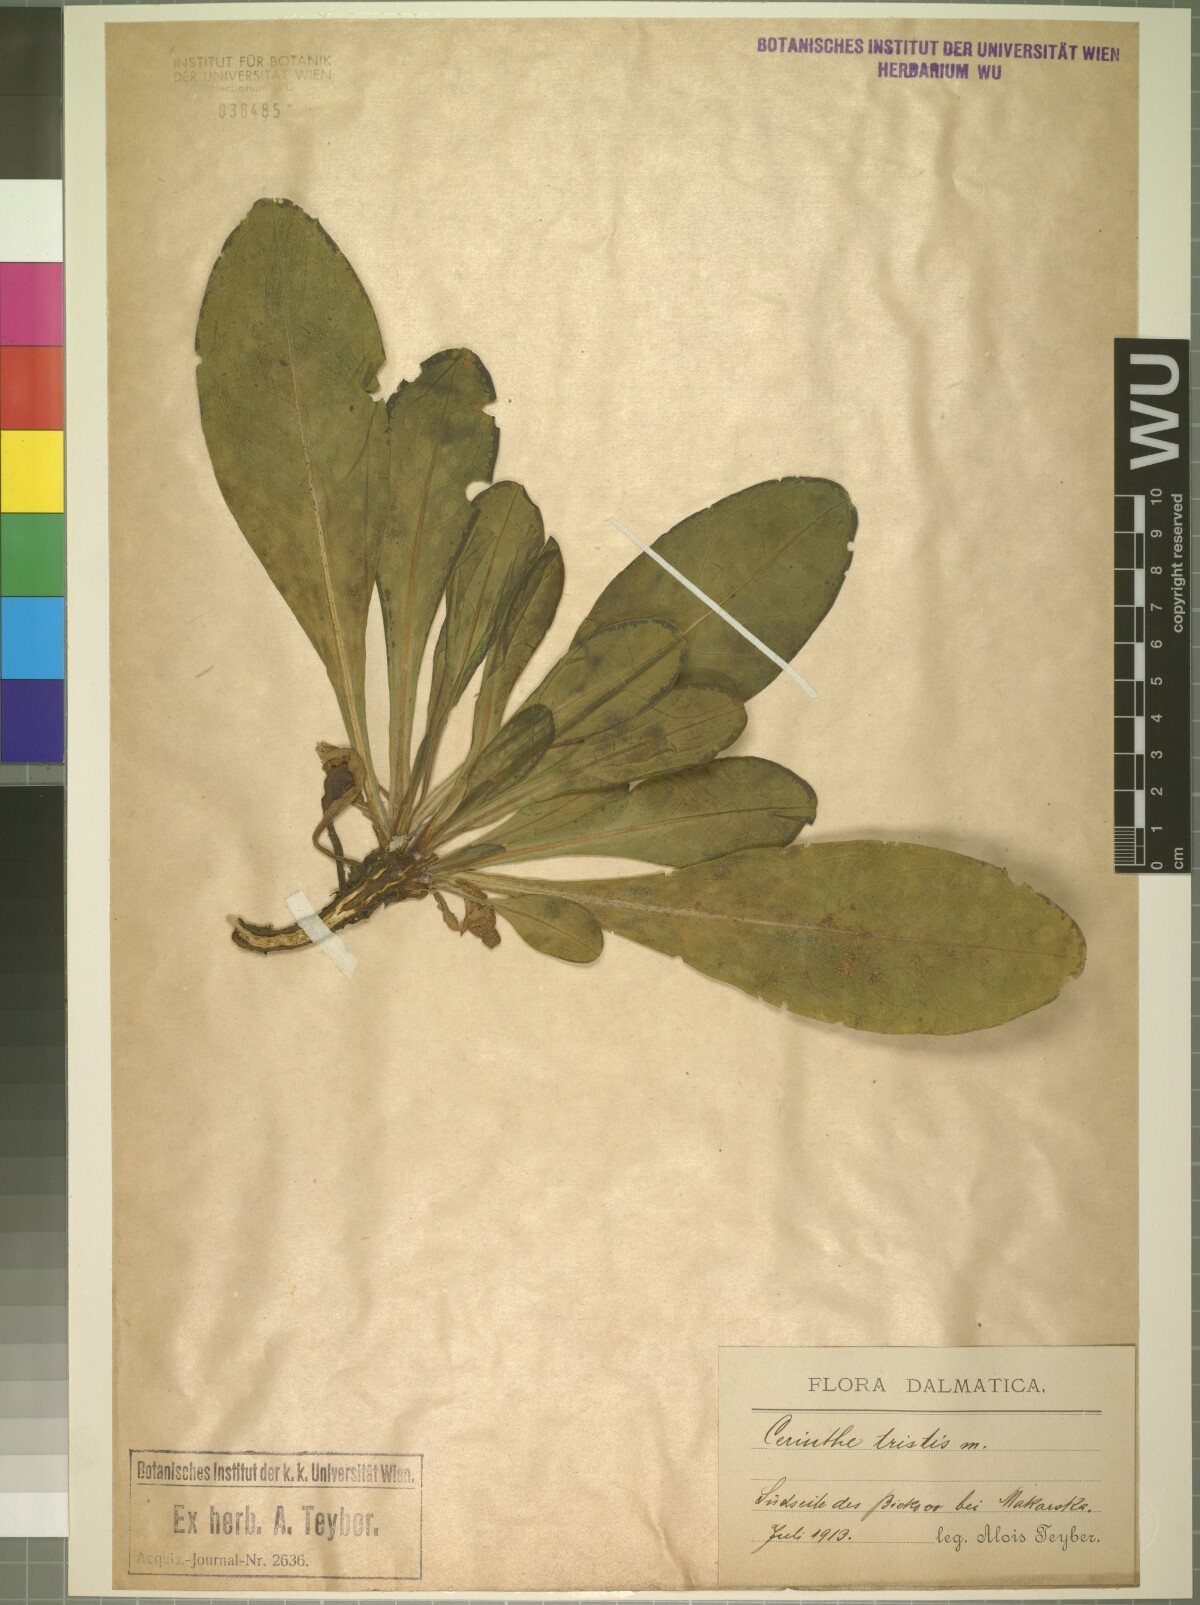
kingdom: Plantae
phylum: Tracheophyta
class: Magnoliopsida
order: Boraginales
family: Boraginaceae
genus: Cerinthe
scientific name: Cerinthe minor
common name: Lesser honeywort
